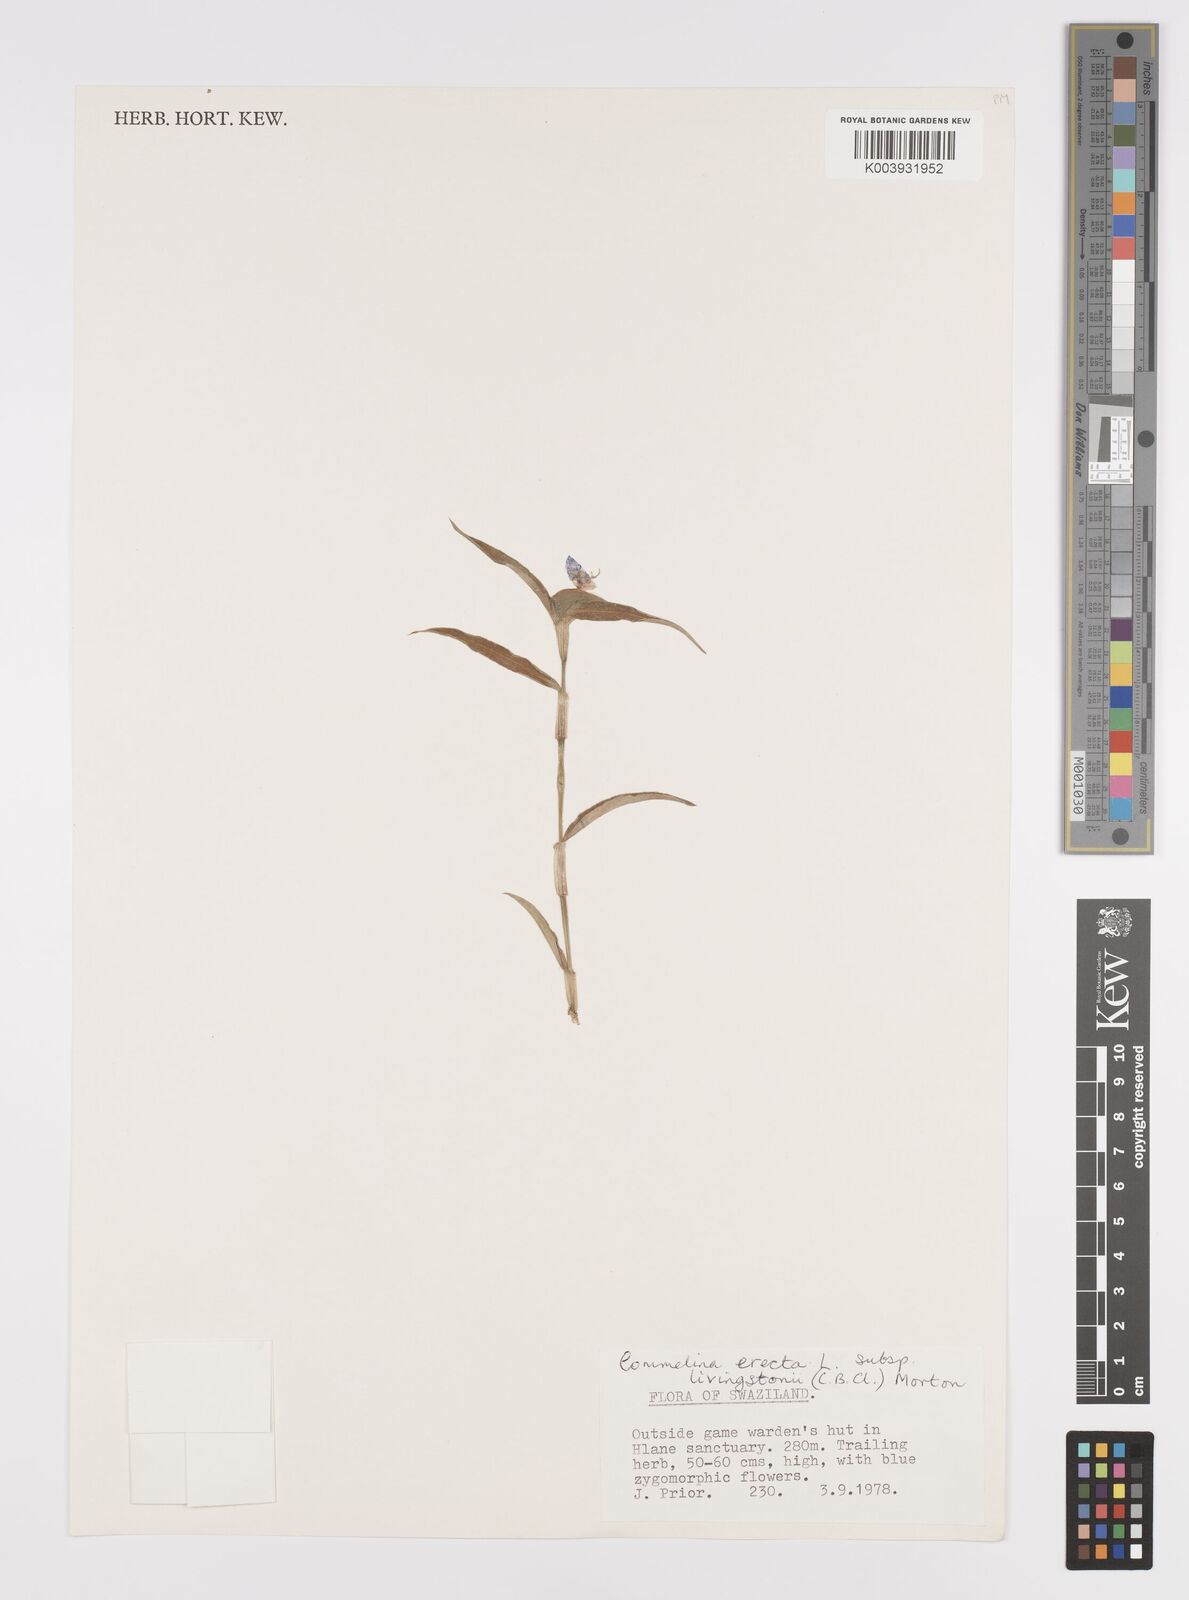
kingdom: Plantae
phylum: Tracheophyta
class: Liliopsida
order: Commelinales
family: Commelinaceae
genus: Commelina
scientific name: Commelina erecta
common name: Blousel blommetjie
